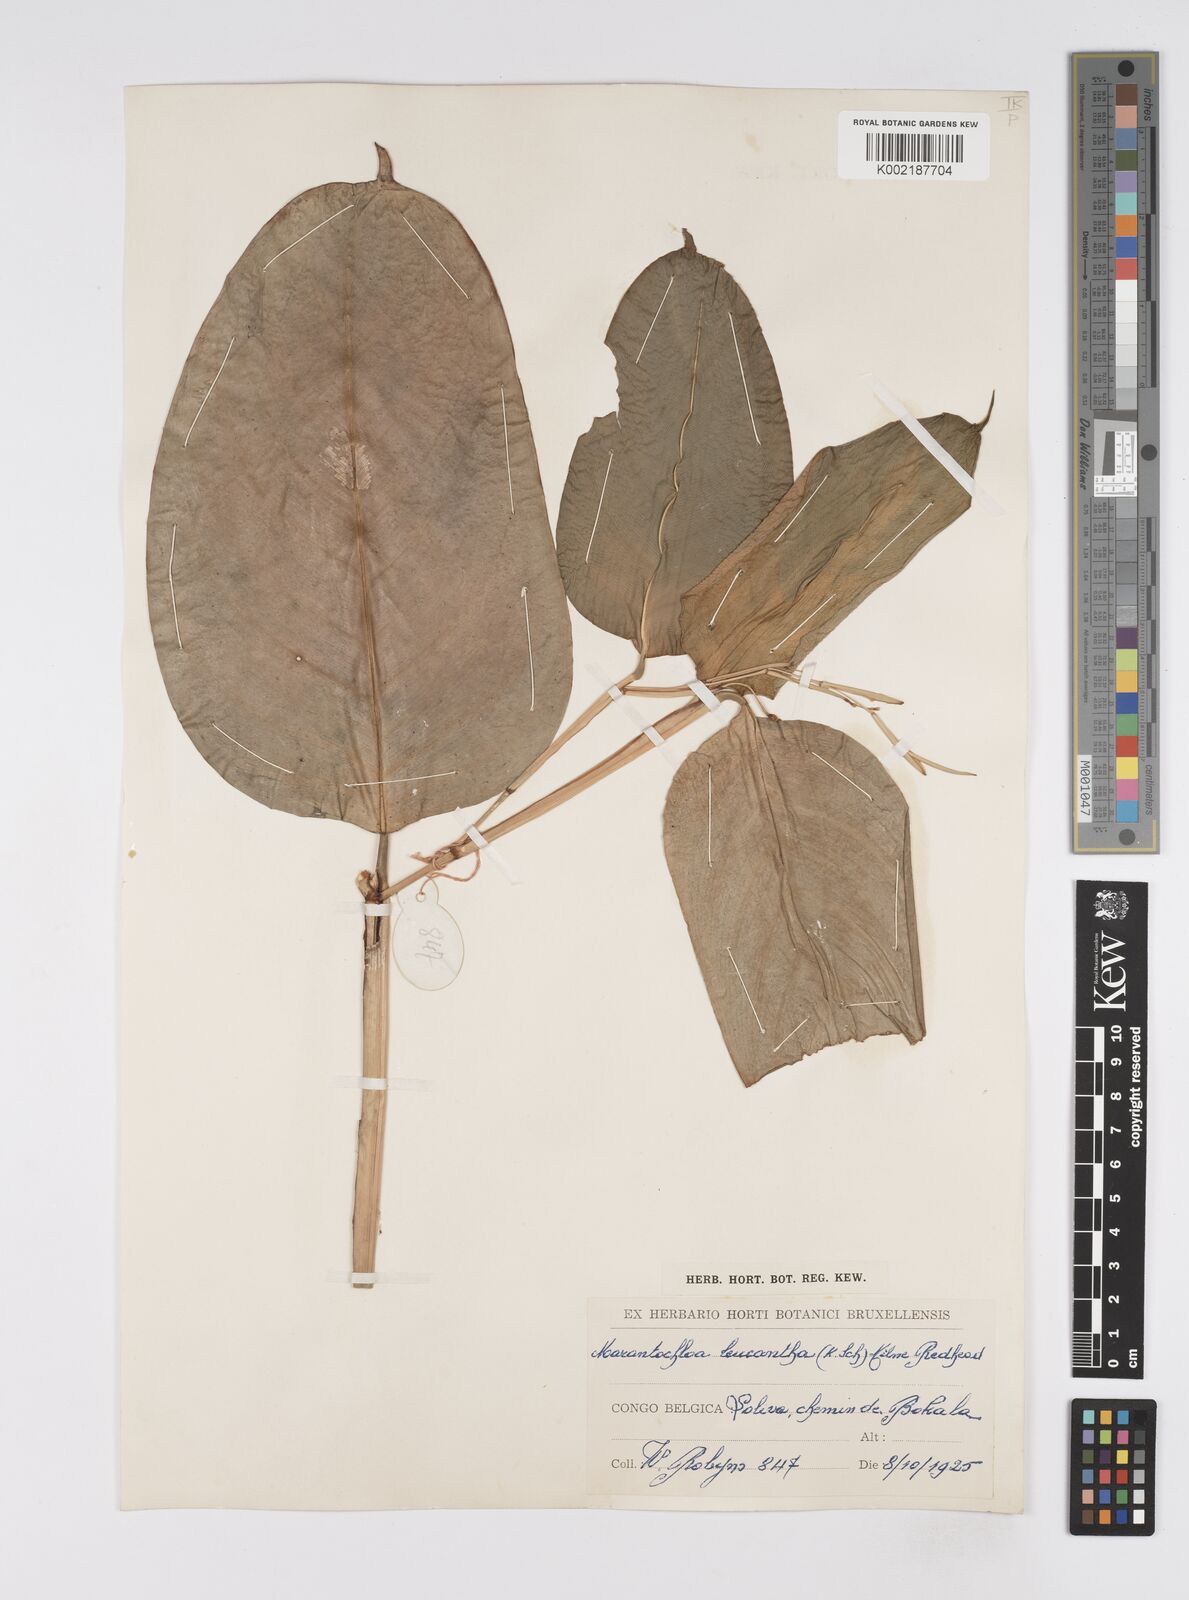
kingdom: Plantae
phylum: Tracheophyta
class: Liliopsida
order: Zingiberales
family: Marantaceae
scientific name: Marantaceae
